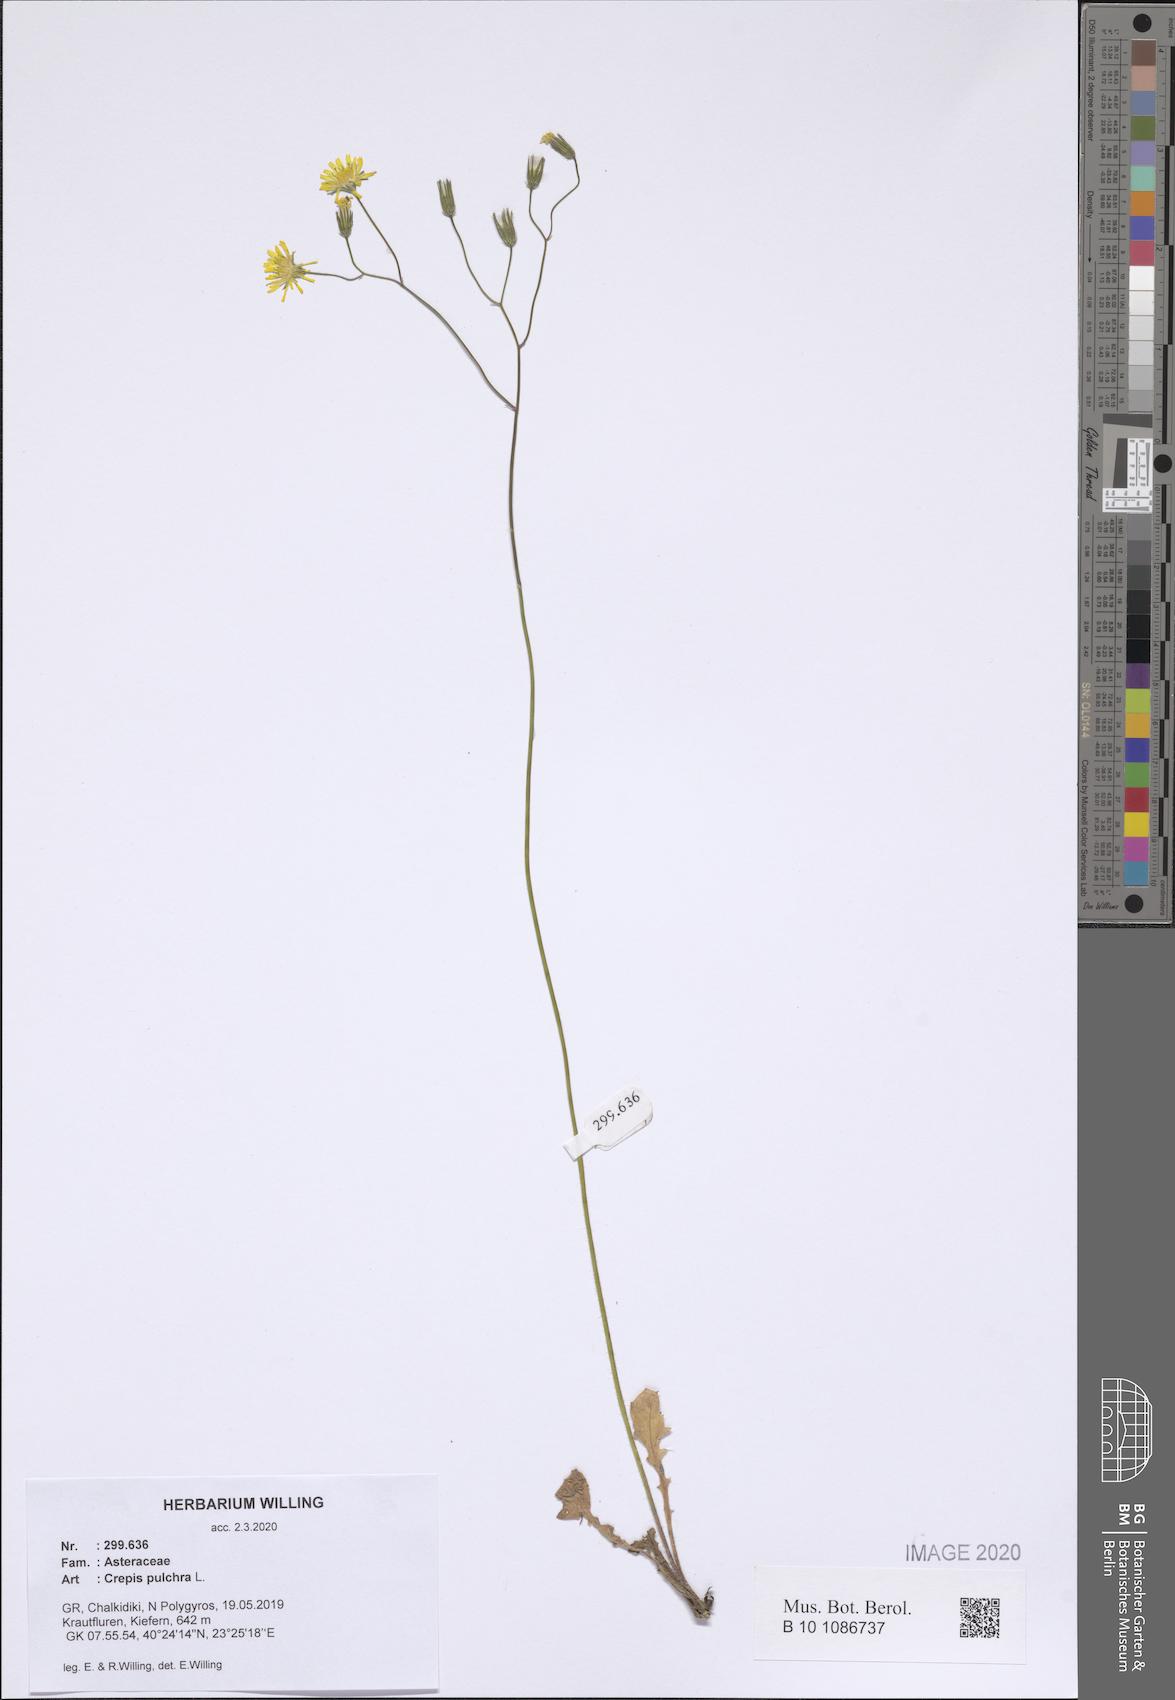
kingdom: Plantae
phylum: Tracheophyta
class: Magnoliopsida
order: Asterales
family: Asteraceae
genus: Crepis
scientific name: Crepis pulchra
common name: Hawk's-beard
